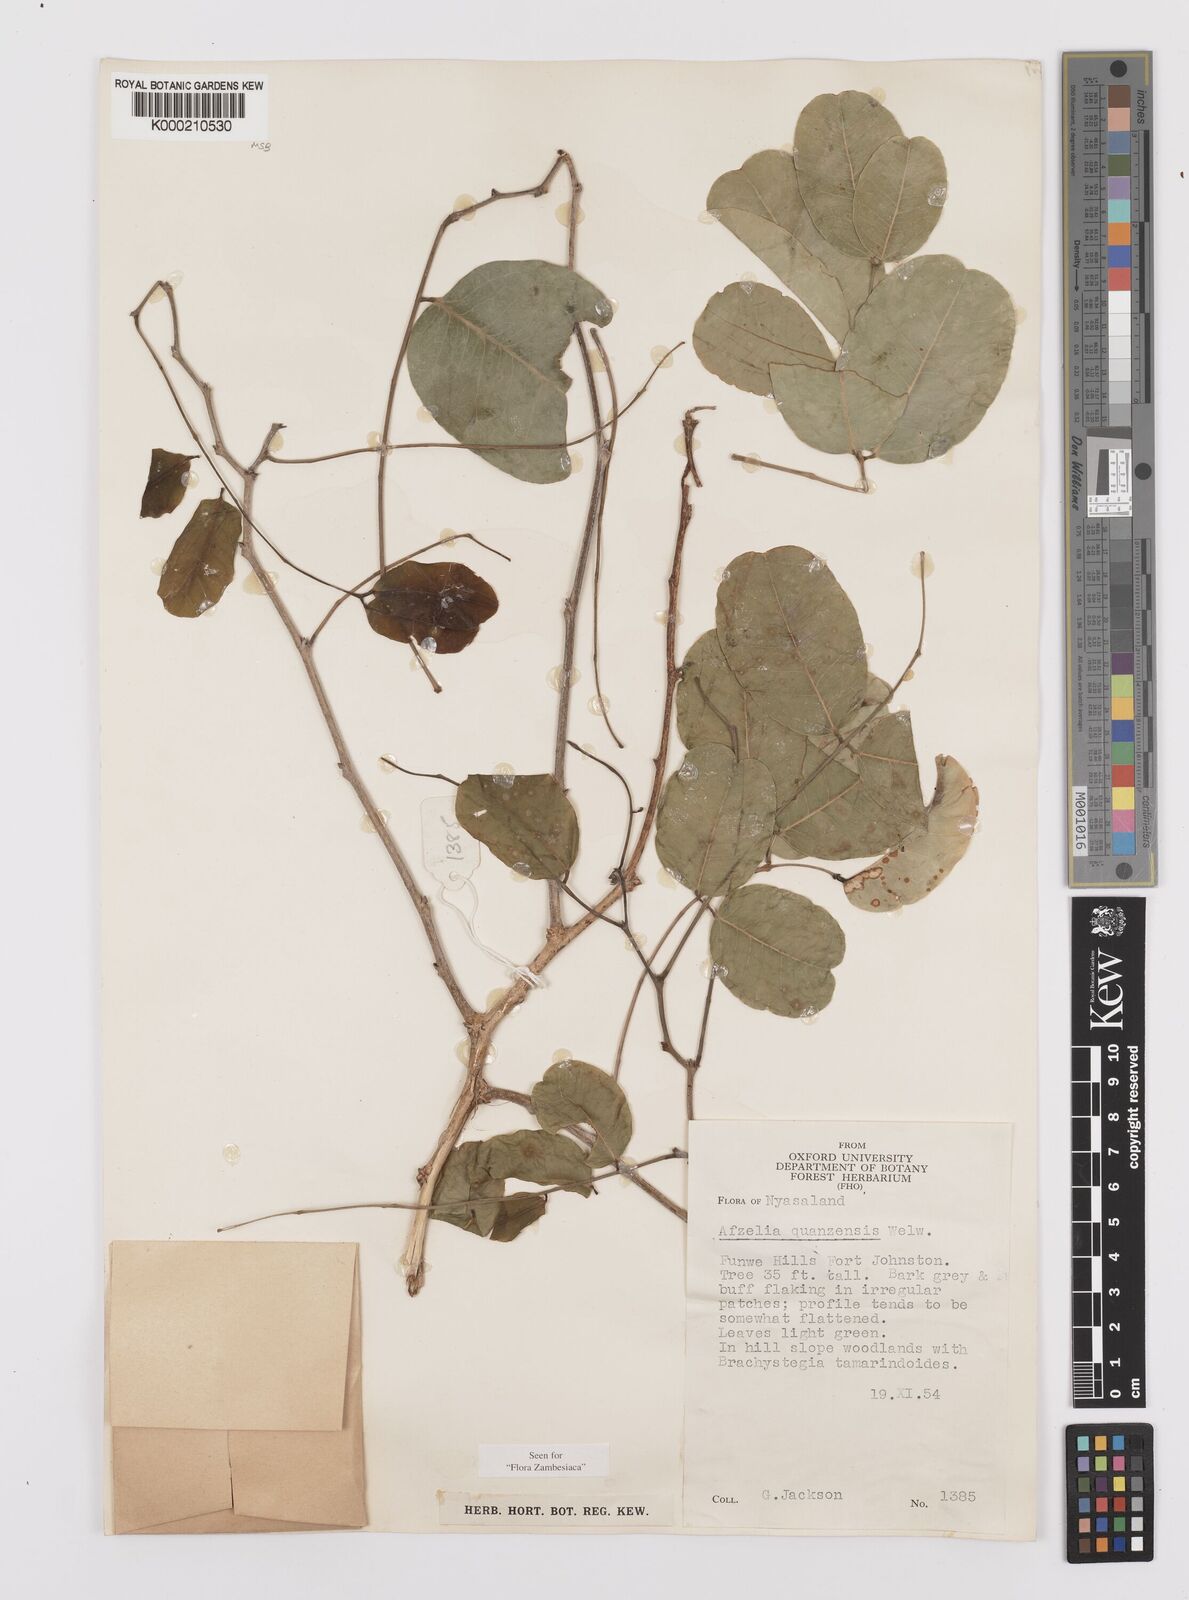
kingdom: Plantae
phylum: Tracheophyta
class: Magnoliopsida
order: Fabales
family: Fabaceae
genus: Afzelia
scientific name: Afzelia quanzensis
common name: Pod mahogany
